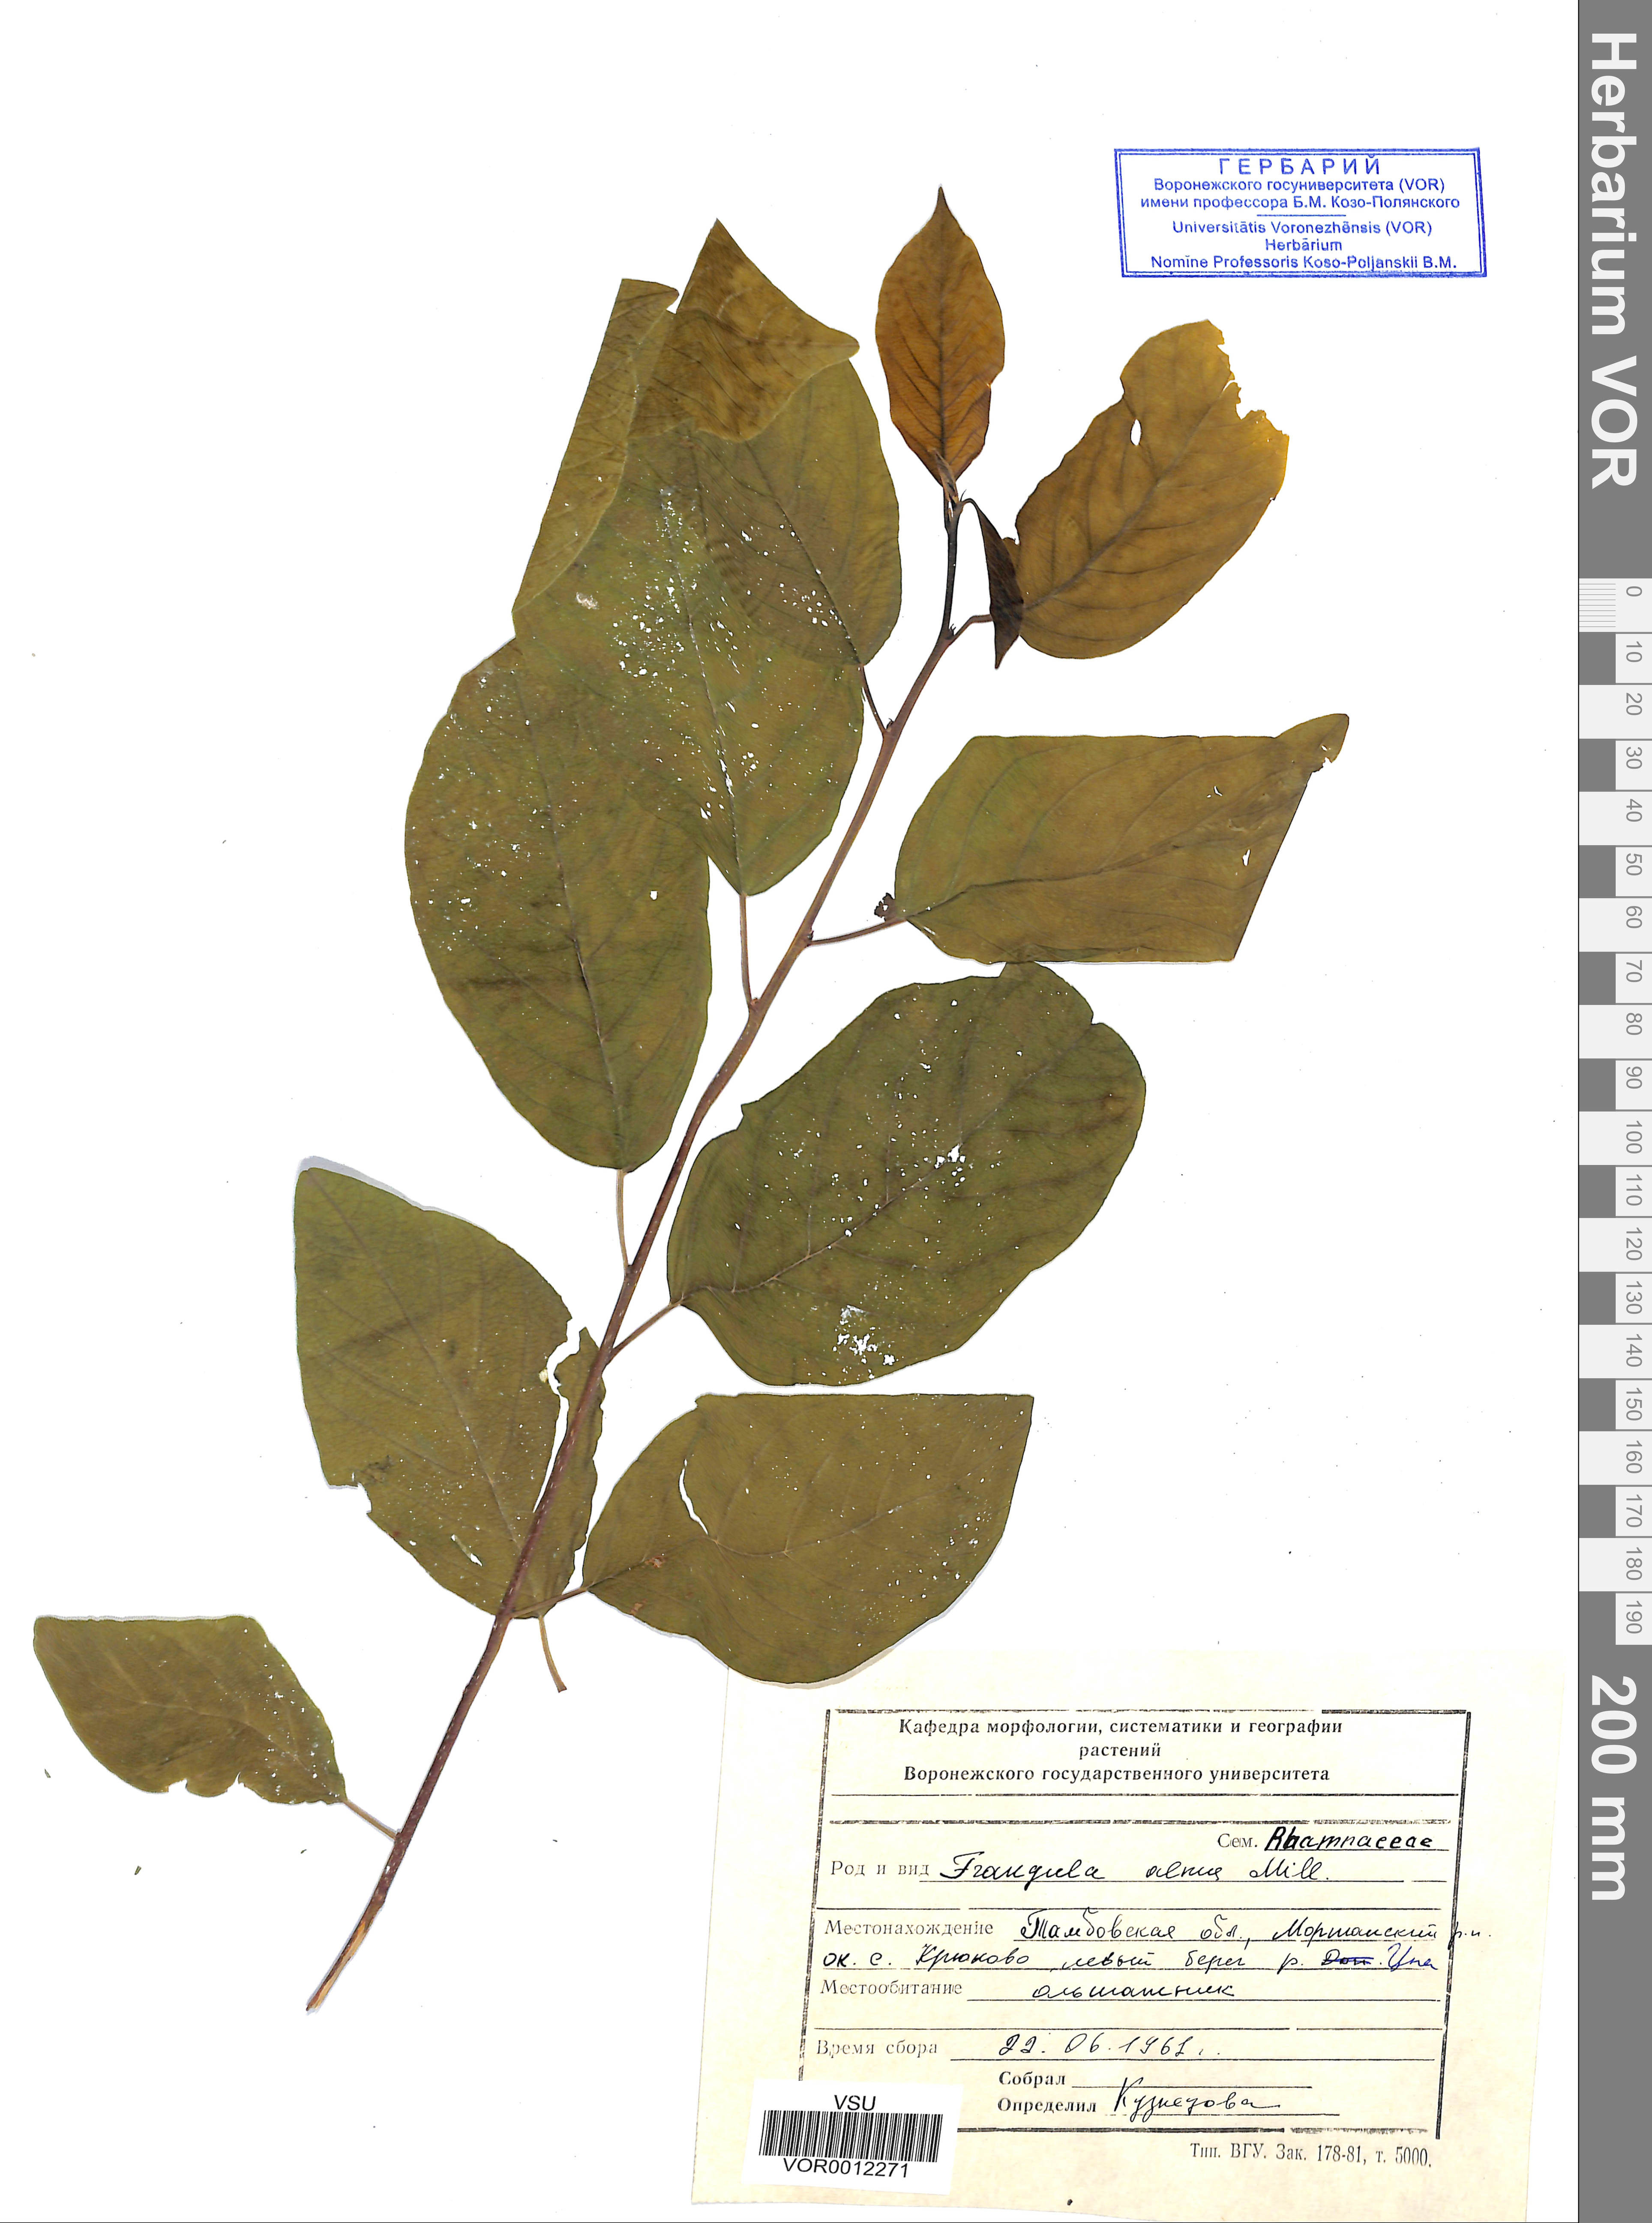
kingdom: Plantae
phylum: Tracheophyta
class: Magnoliopsida
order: Rosales
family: Rhamnaceae
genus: Frangula
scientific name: Frangula alnus
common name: Alder buckthorn
